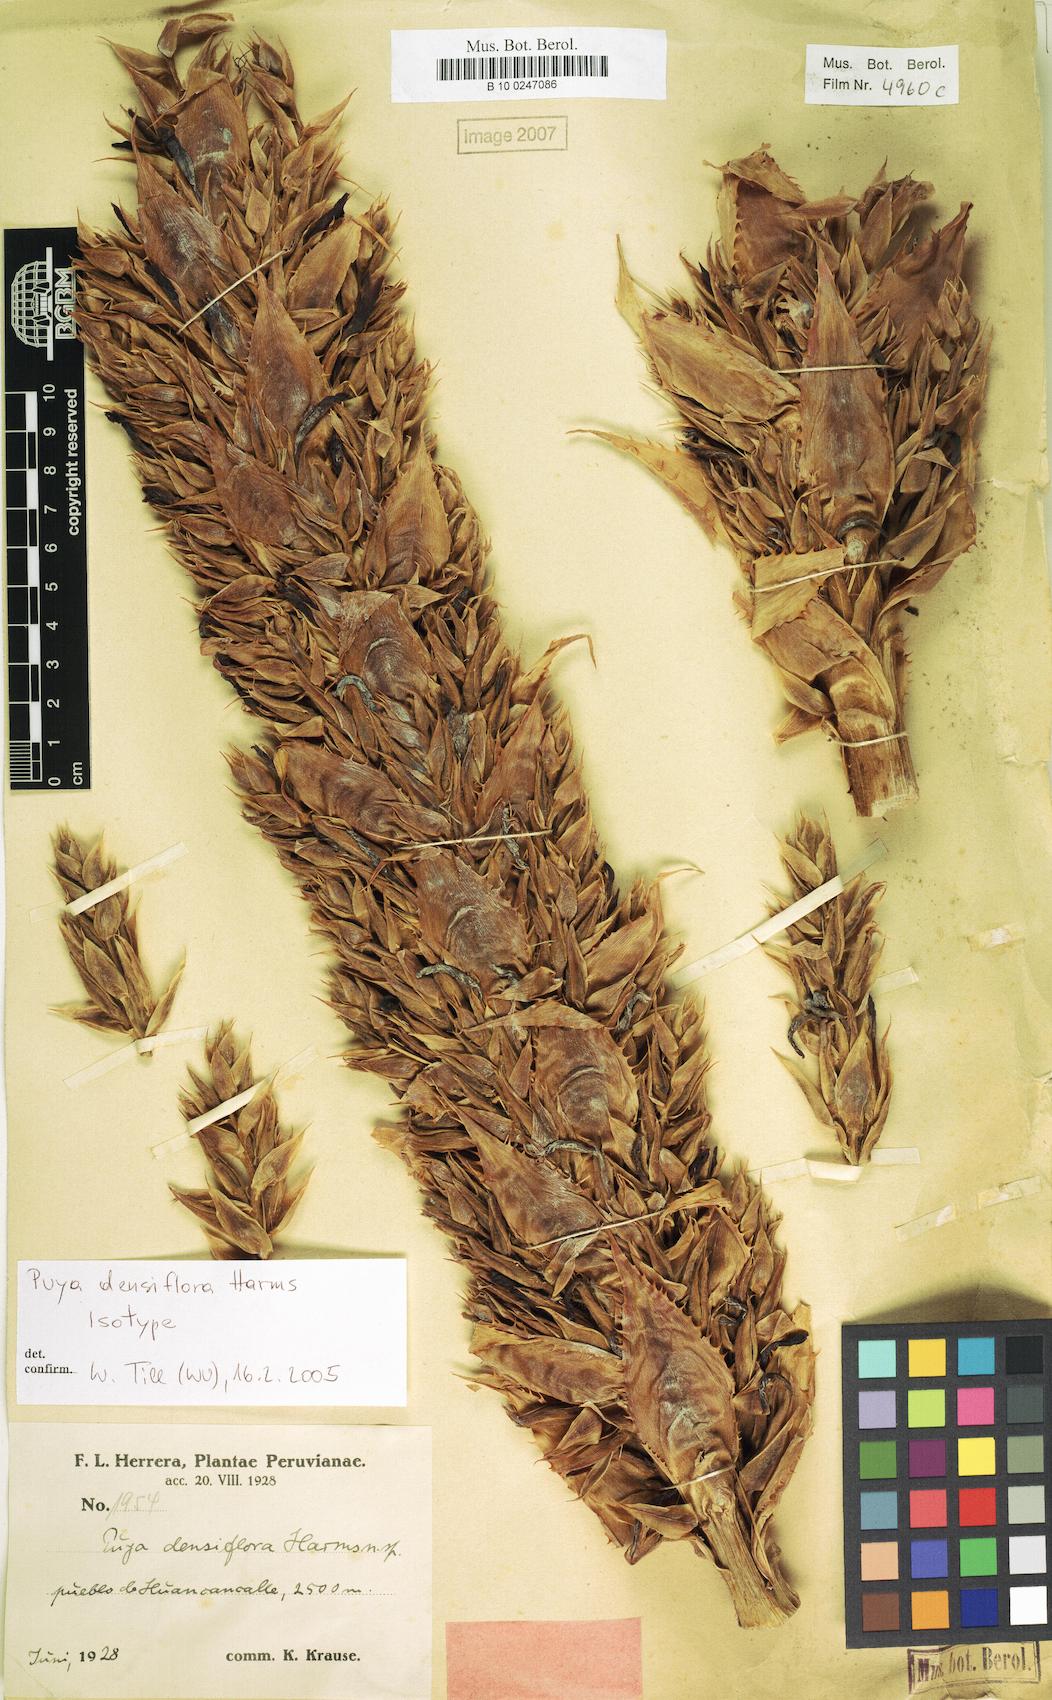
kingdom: Plantae
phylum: Tracheophyta
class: Liliopsida
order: Poales
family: Bromeliaceae
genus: Puya
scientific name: Puya densiflora
